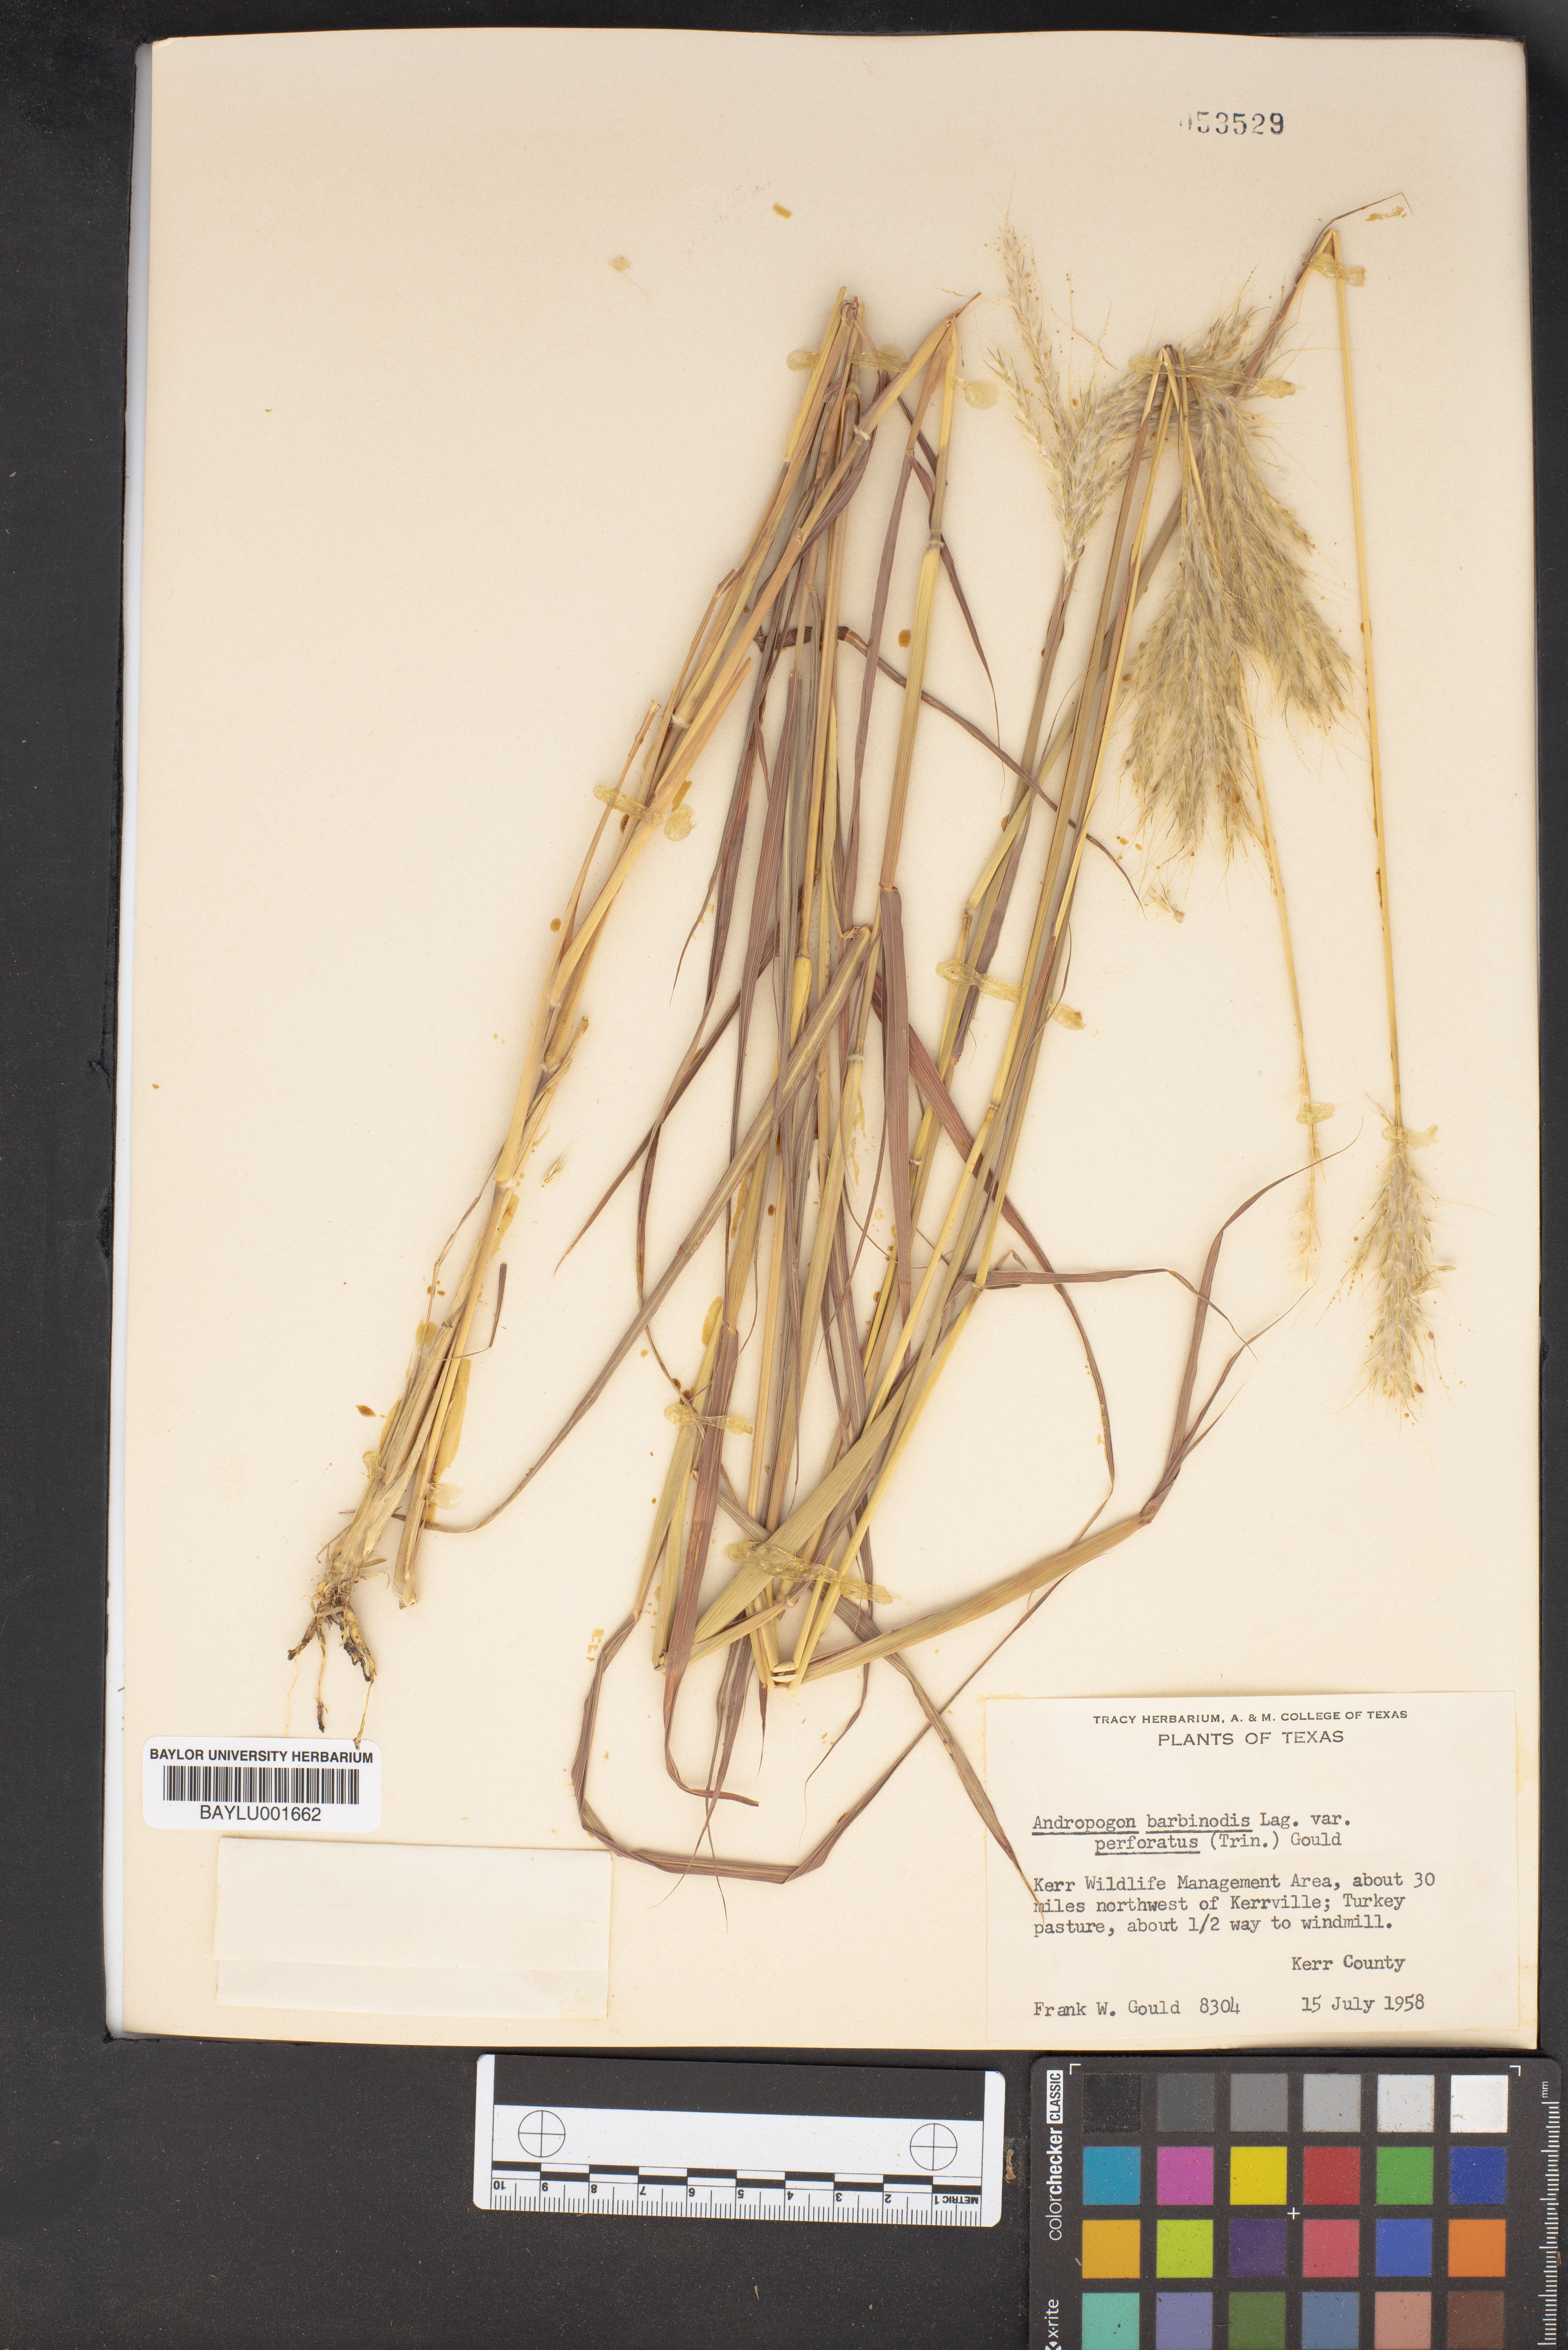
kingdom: Plantae
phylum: Tracheophyta
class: Liliopsida
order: Poales
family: Poaceae
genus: Bothriochloa
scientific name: Bothriochloa barbinodis
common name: Cane bluestem
